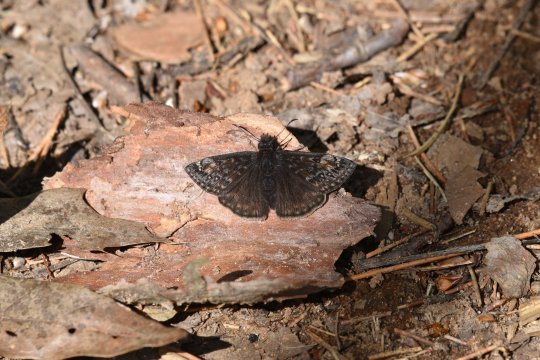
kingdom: Animalia
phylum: Arthropoda
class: Insecta
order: Lepidoptera
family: Hesperiidae
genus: Gesta
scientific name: Gesta
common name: Juvenal's Duskywing
